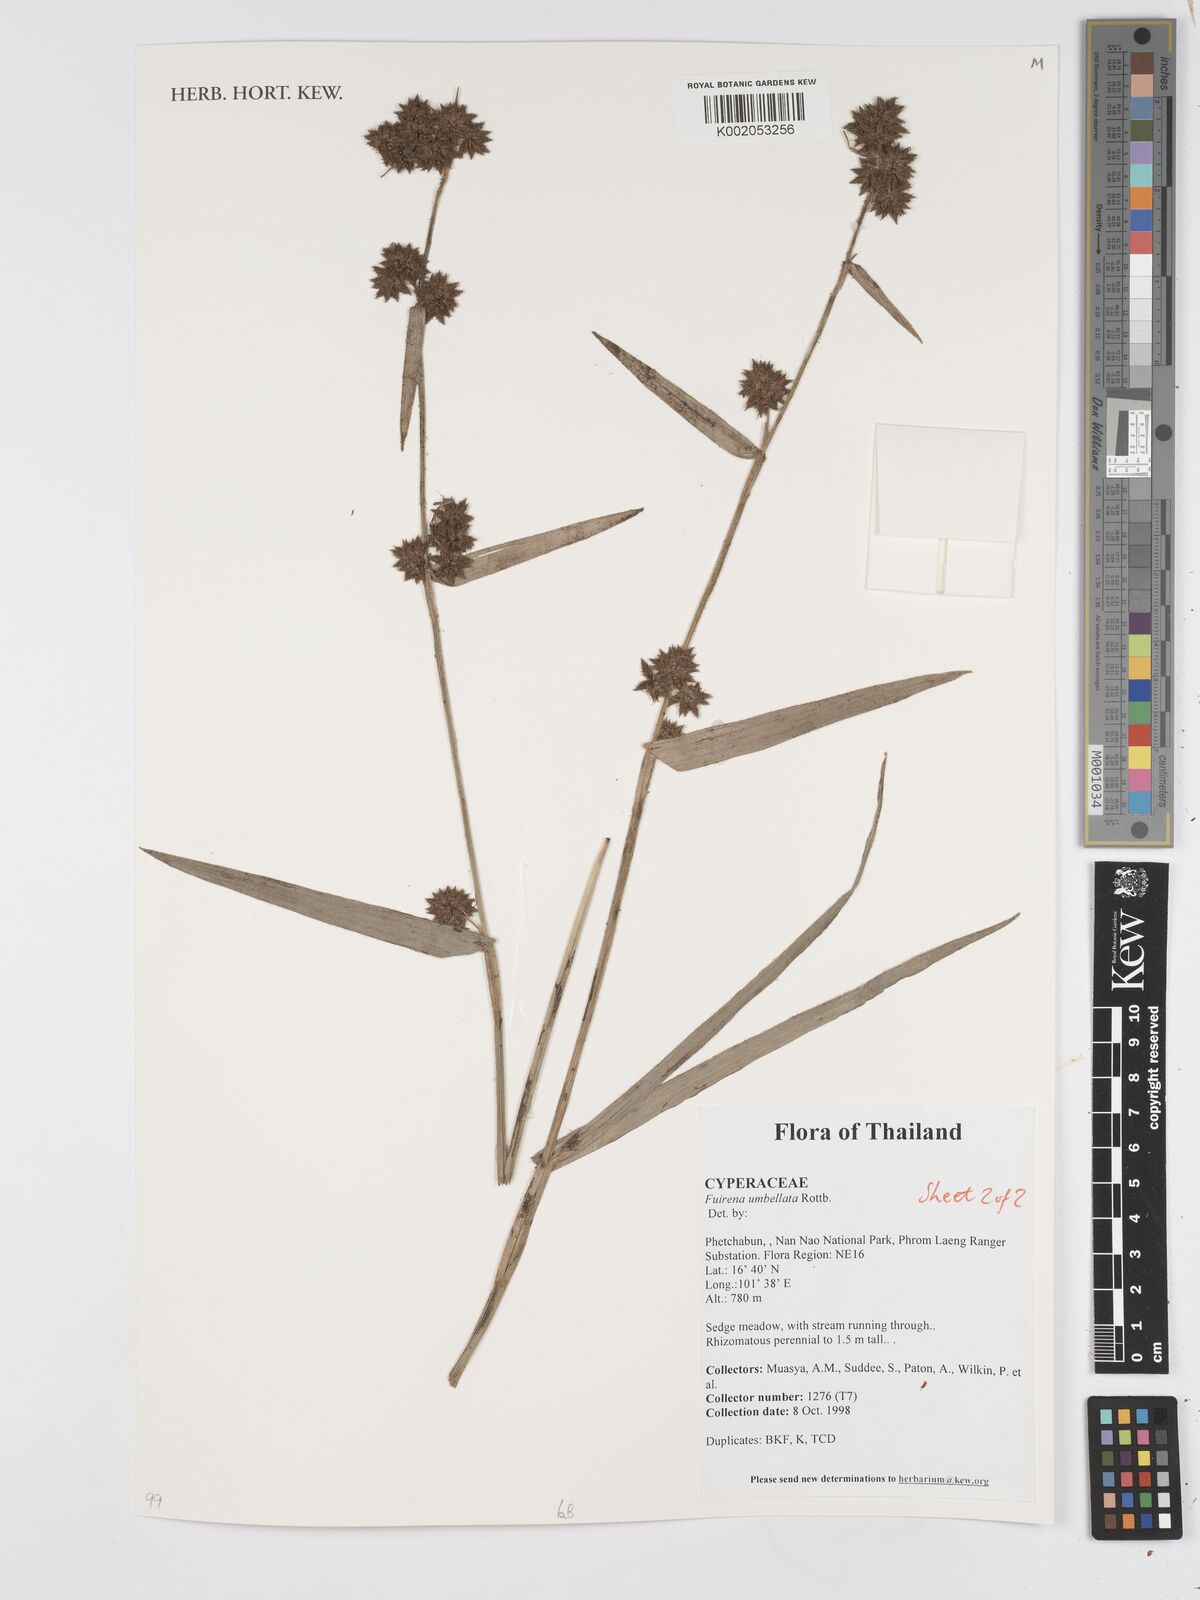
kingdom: Plantae
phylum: Tracheophyta
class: Liliopsida
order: Poales
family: Cyperaceae
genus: Fuirena
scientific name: Fuirena umbellata
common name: Yefen
